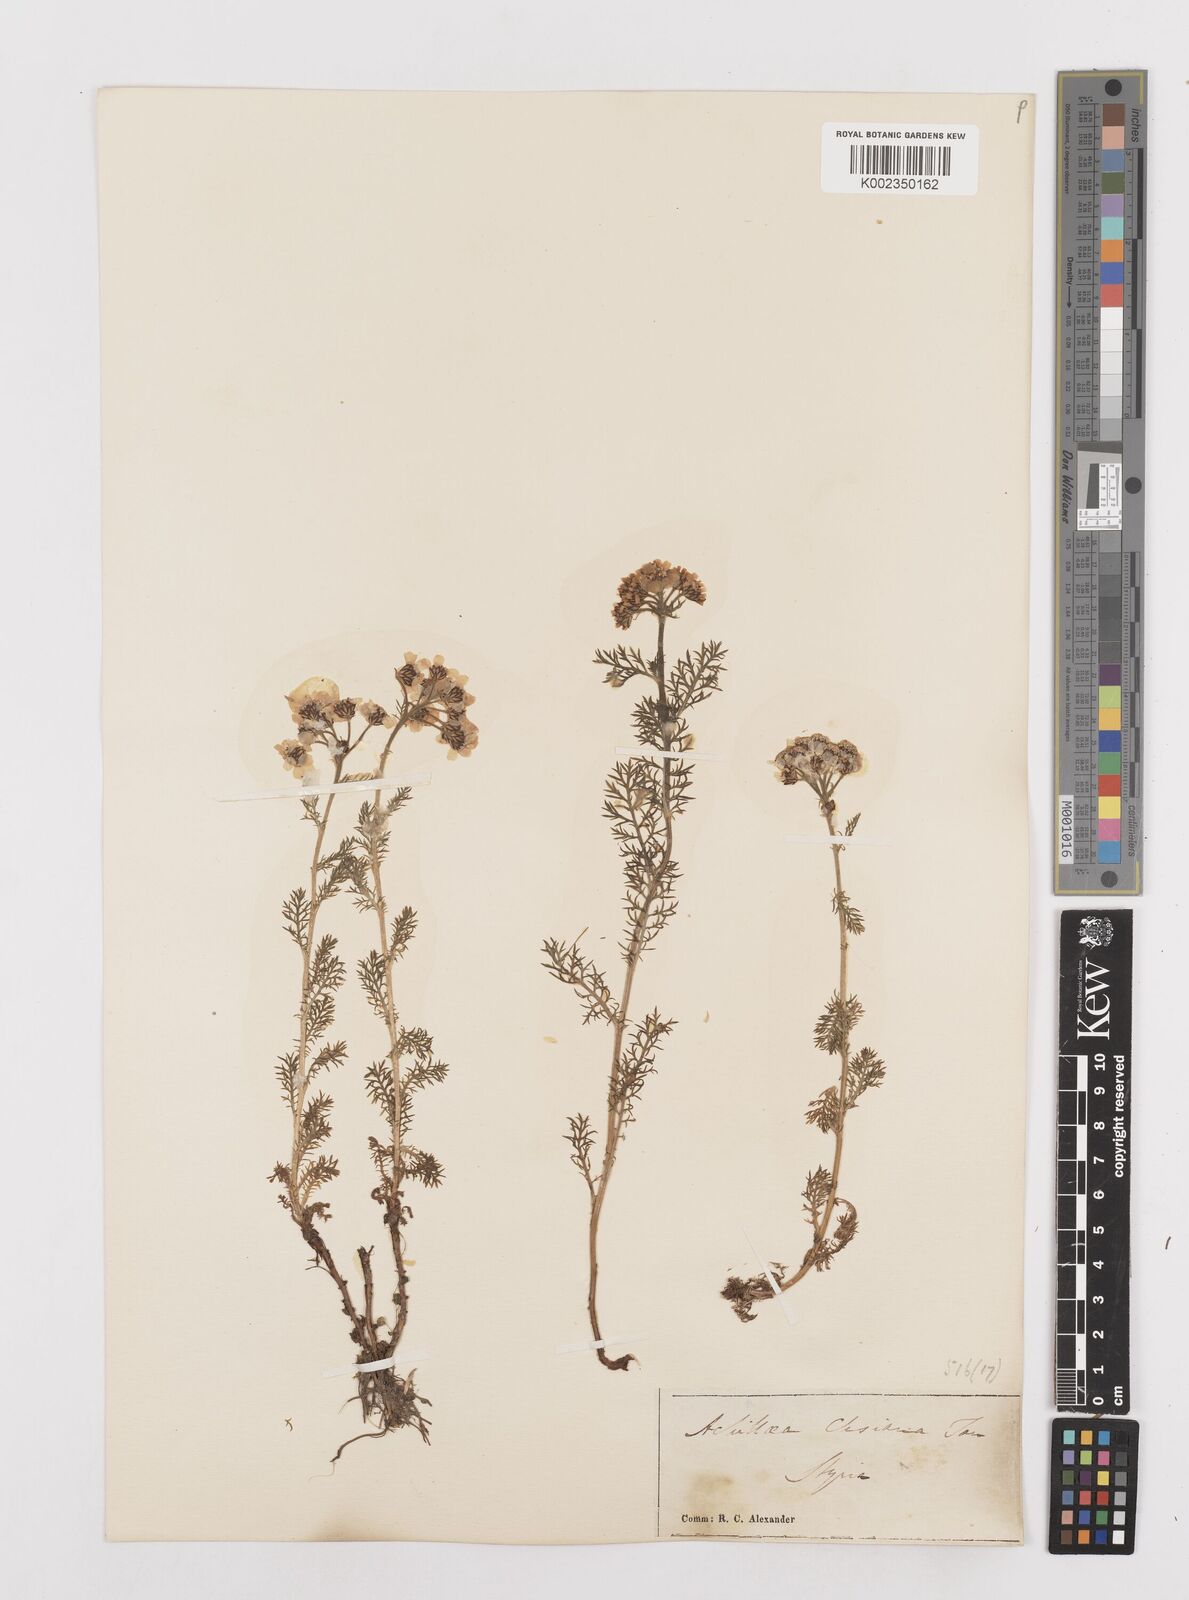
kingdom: Plantae
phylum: Tracheophyta
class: Magnoliopsida
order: Asterales
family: Asteraceae
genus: Achillea
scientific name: Achillea clusiana
